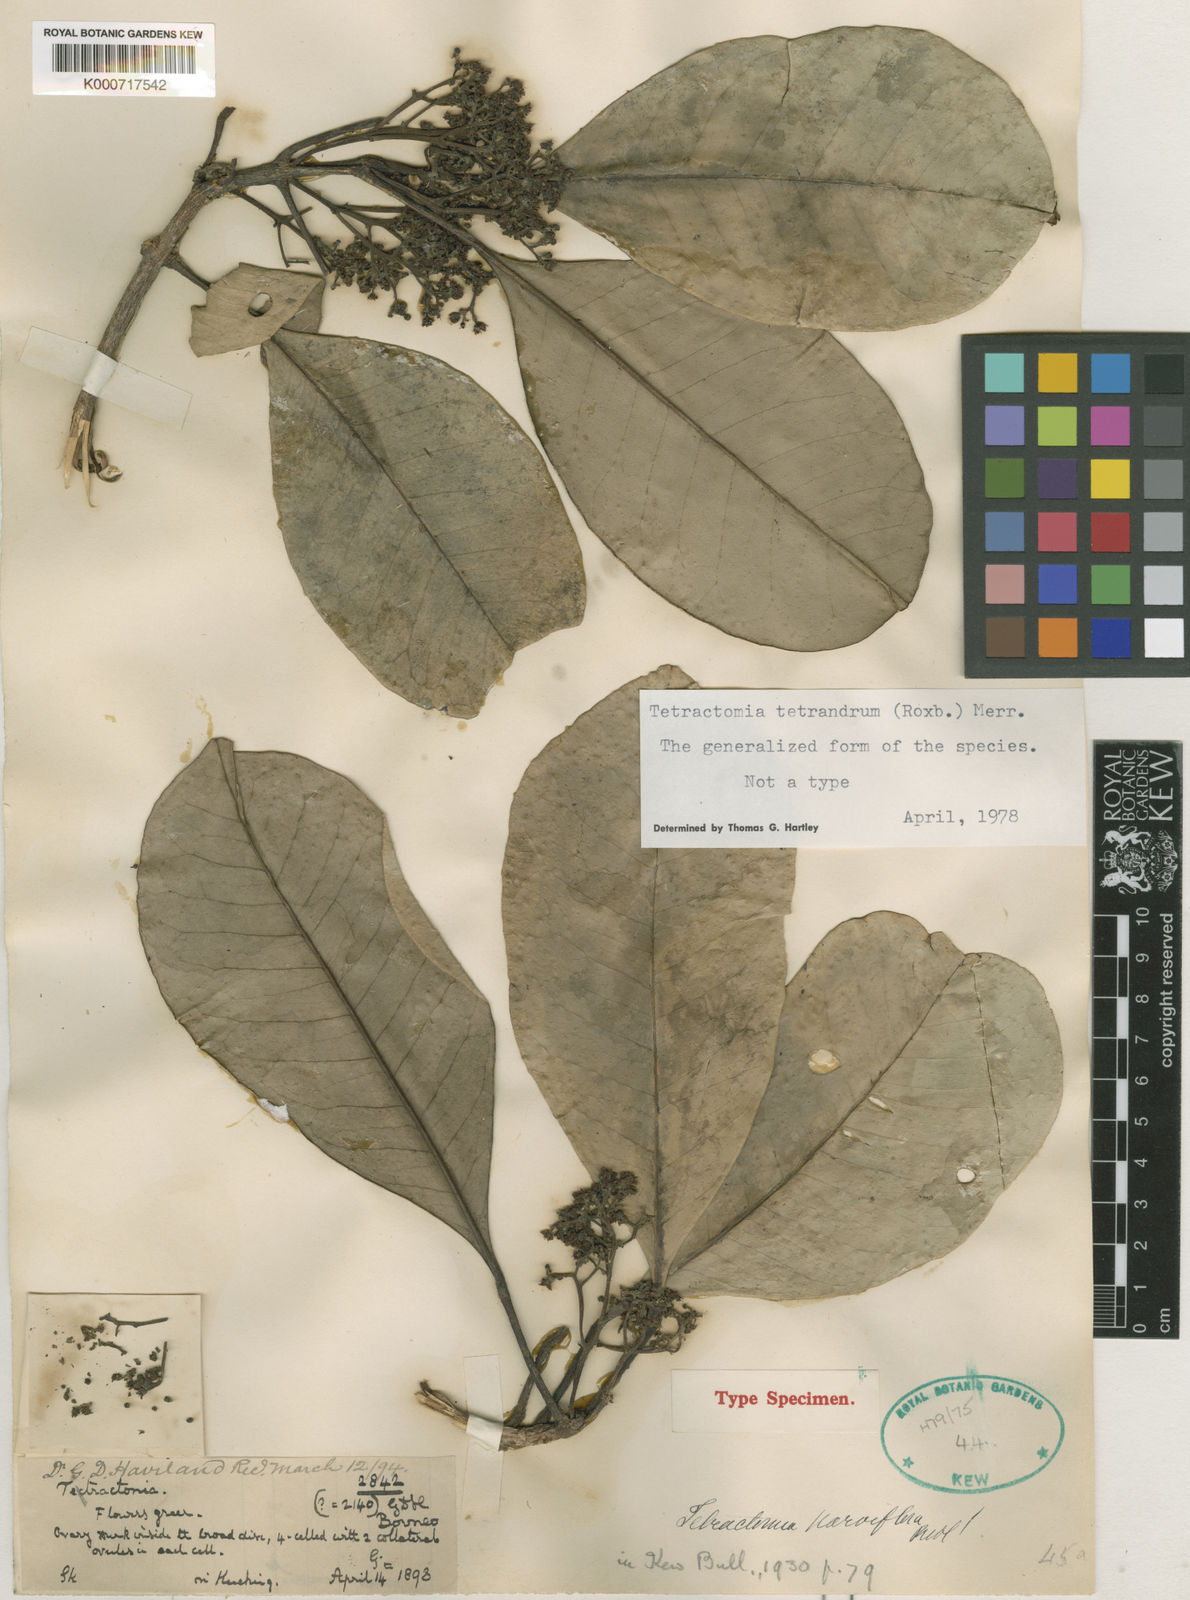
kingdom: Plantae
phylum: Tracheophyta
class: Magnoliopsida
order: Sapindales
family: Rutaceae
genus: Tetractomia
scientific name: Tetractomia tetrandra
